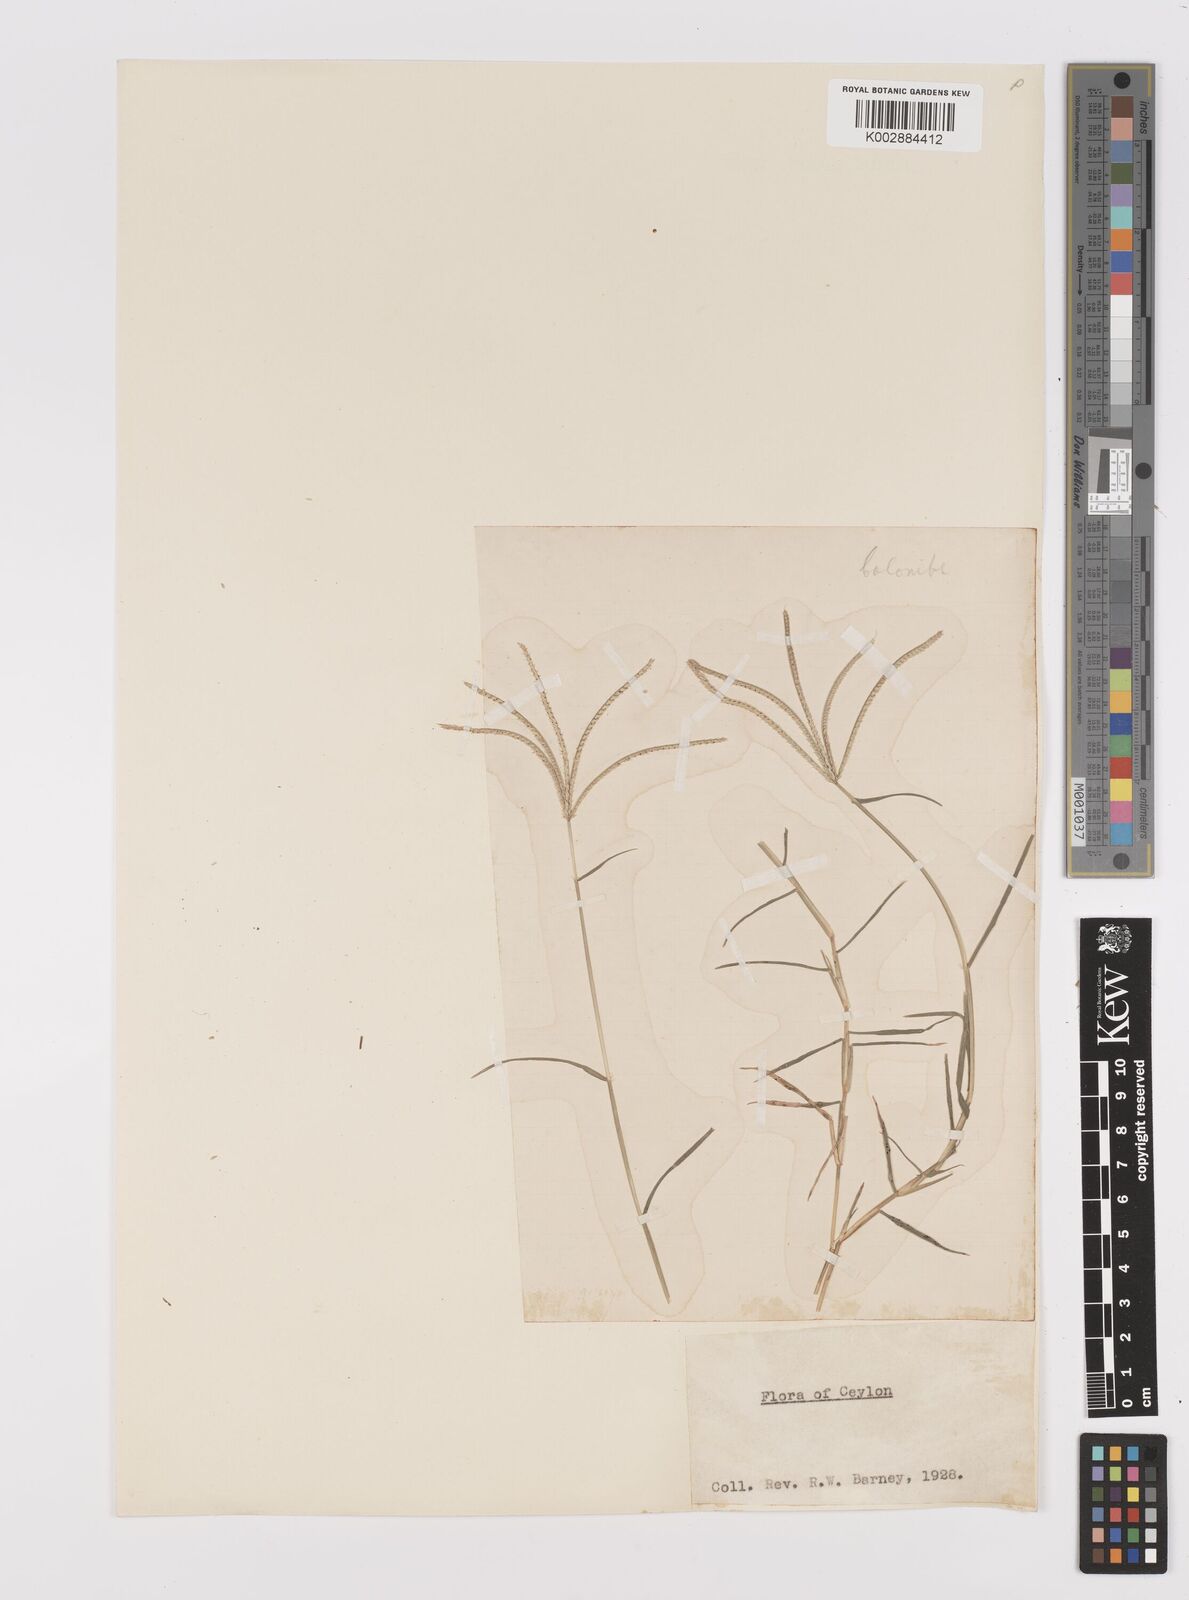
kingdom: Plantae
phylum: Tracheophyta
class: Liliopsida
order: Poales
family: Poaceae
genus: Cynodon
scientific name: Cynodon dactylon
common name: Bermuda grass
